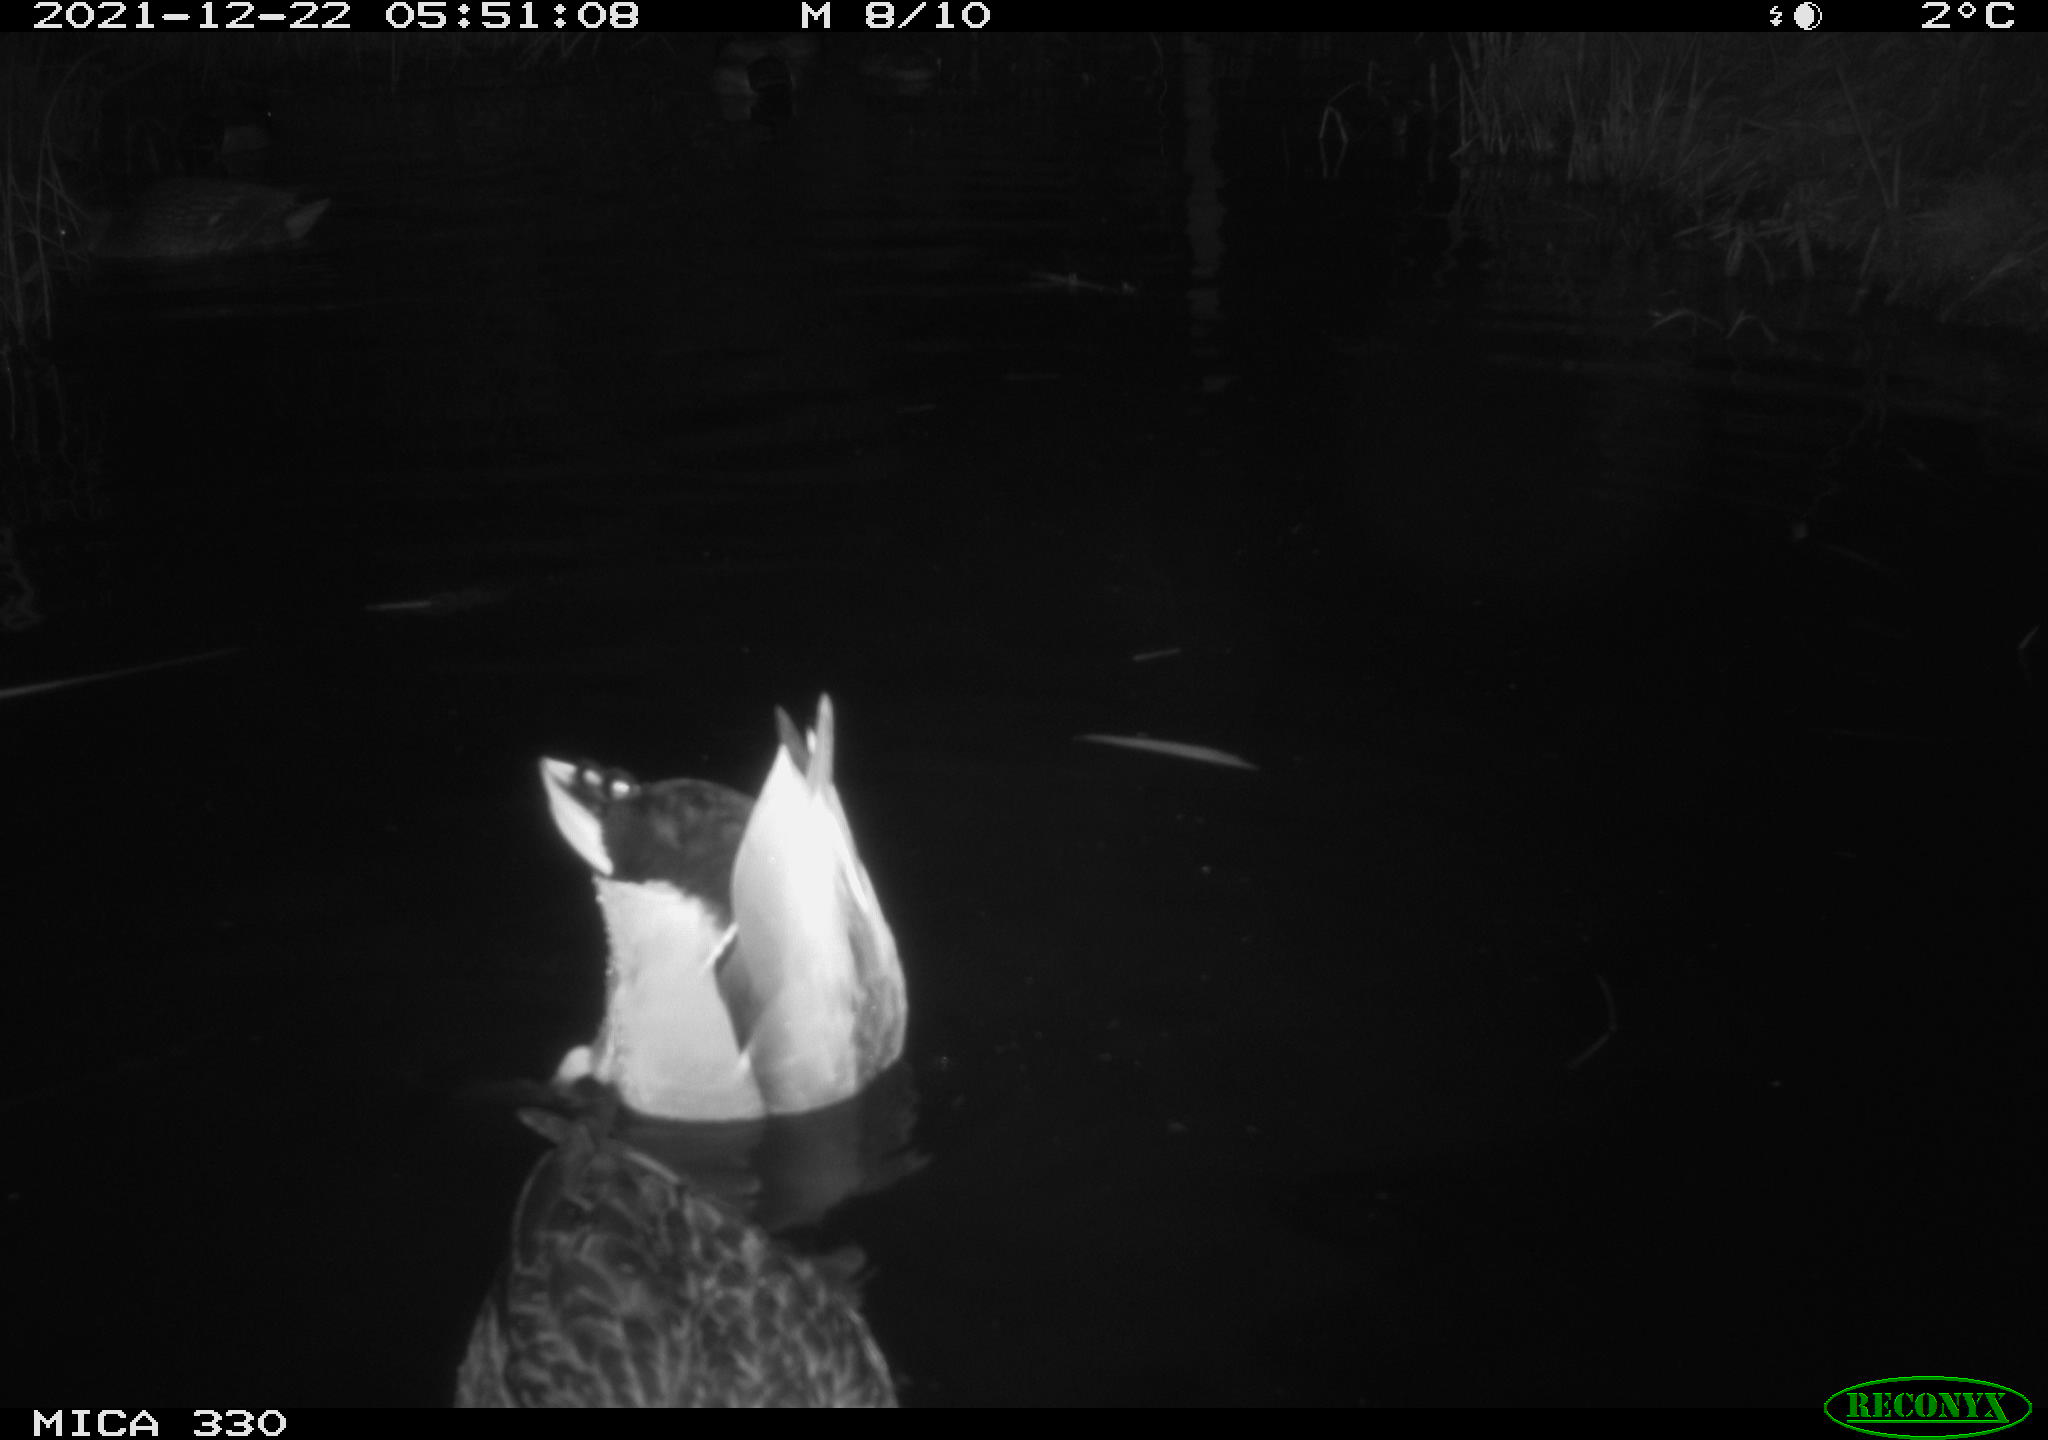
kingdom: Animalia
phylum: Chordata
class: Aves
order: Anseriformes
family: Anatidae
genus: Anas
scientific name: Anas platyrhynchos
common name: Mallard
